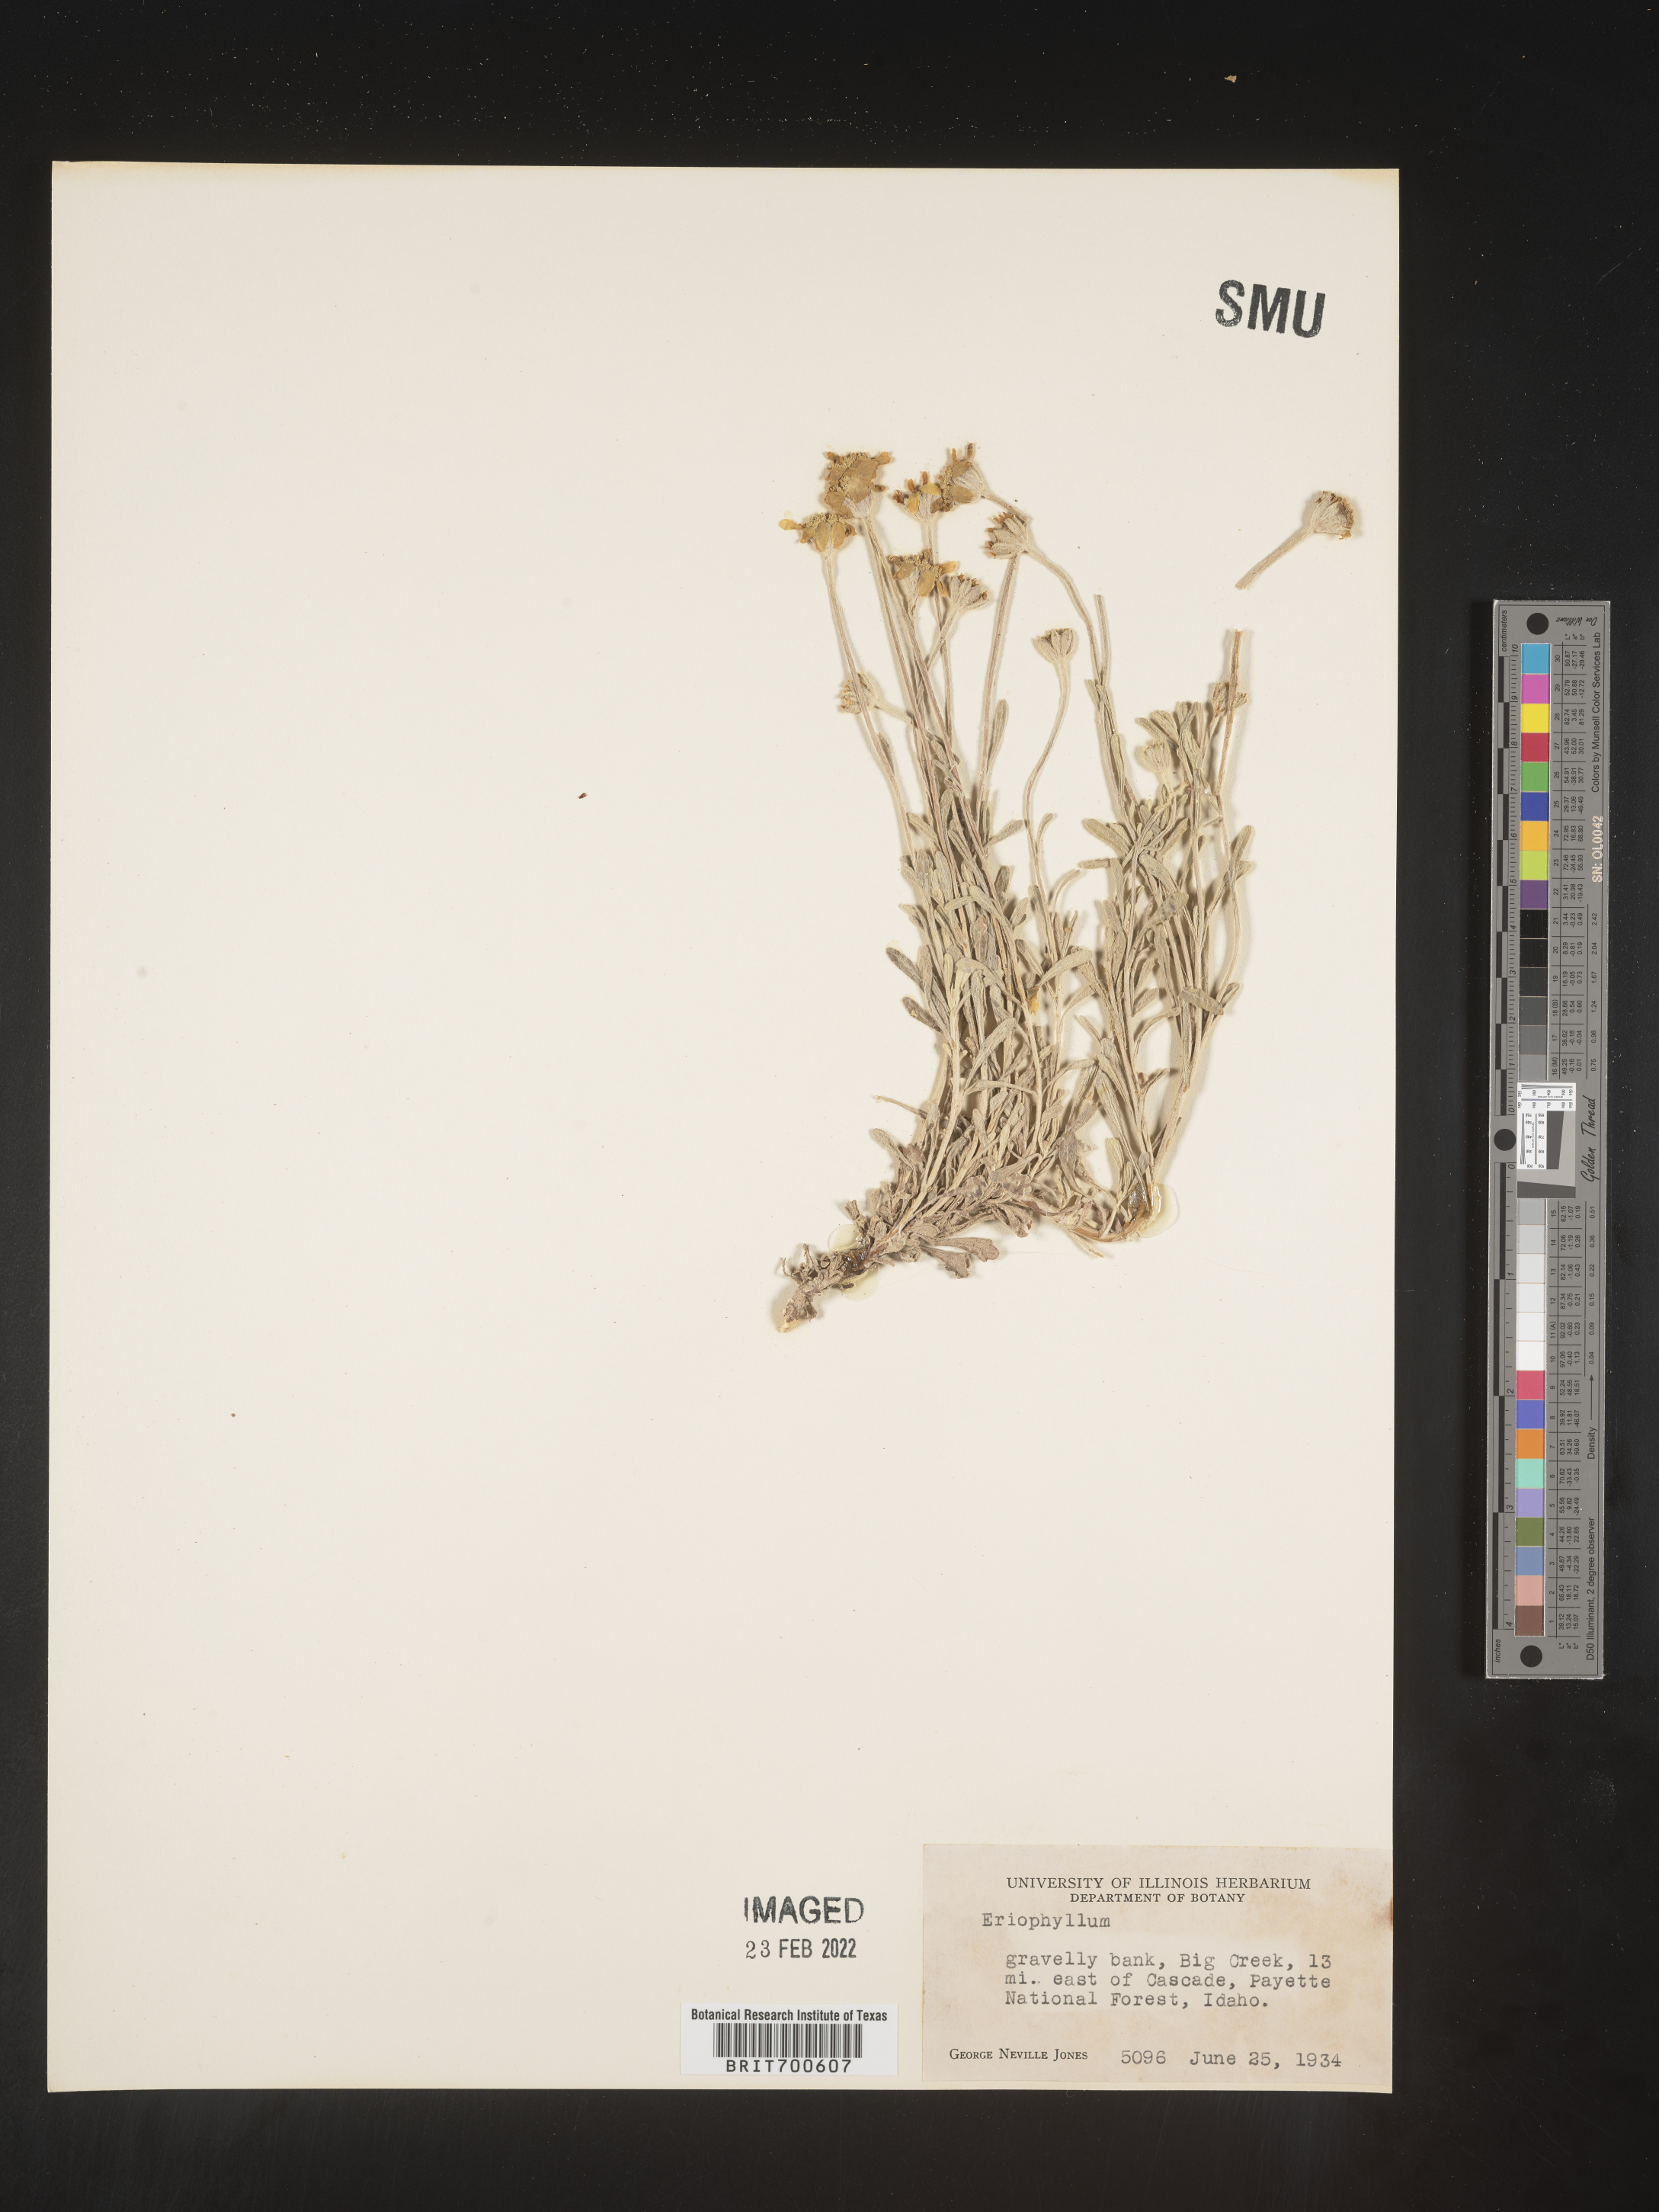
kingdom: Plantae
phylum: Tracheophyta
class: Magnoliopsida
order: Asterales
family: Asteraceae
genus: Eriophyllum
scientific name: Eriophyllum
